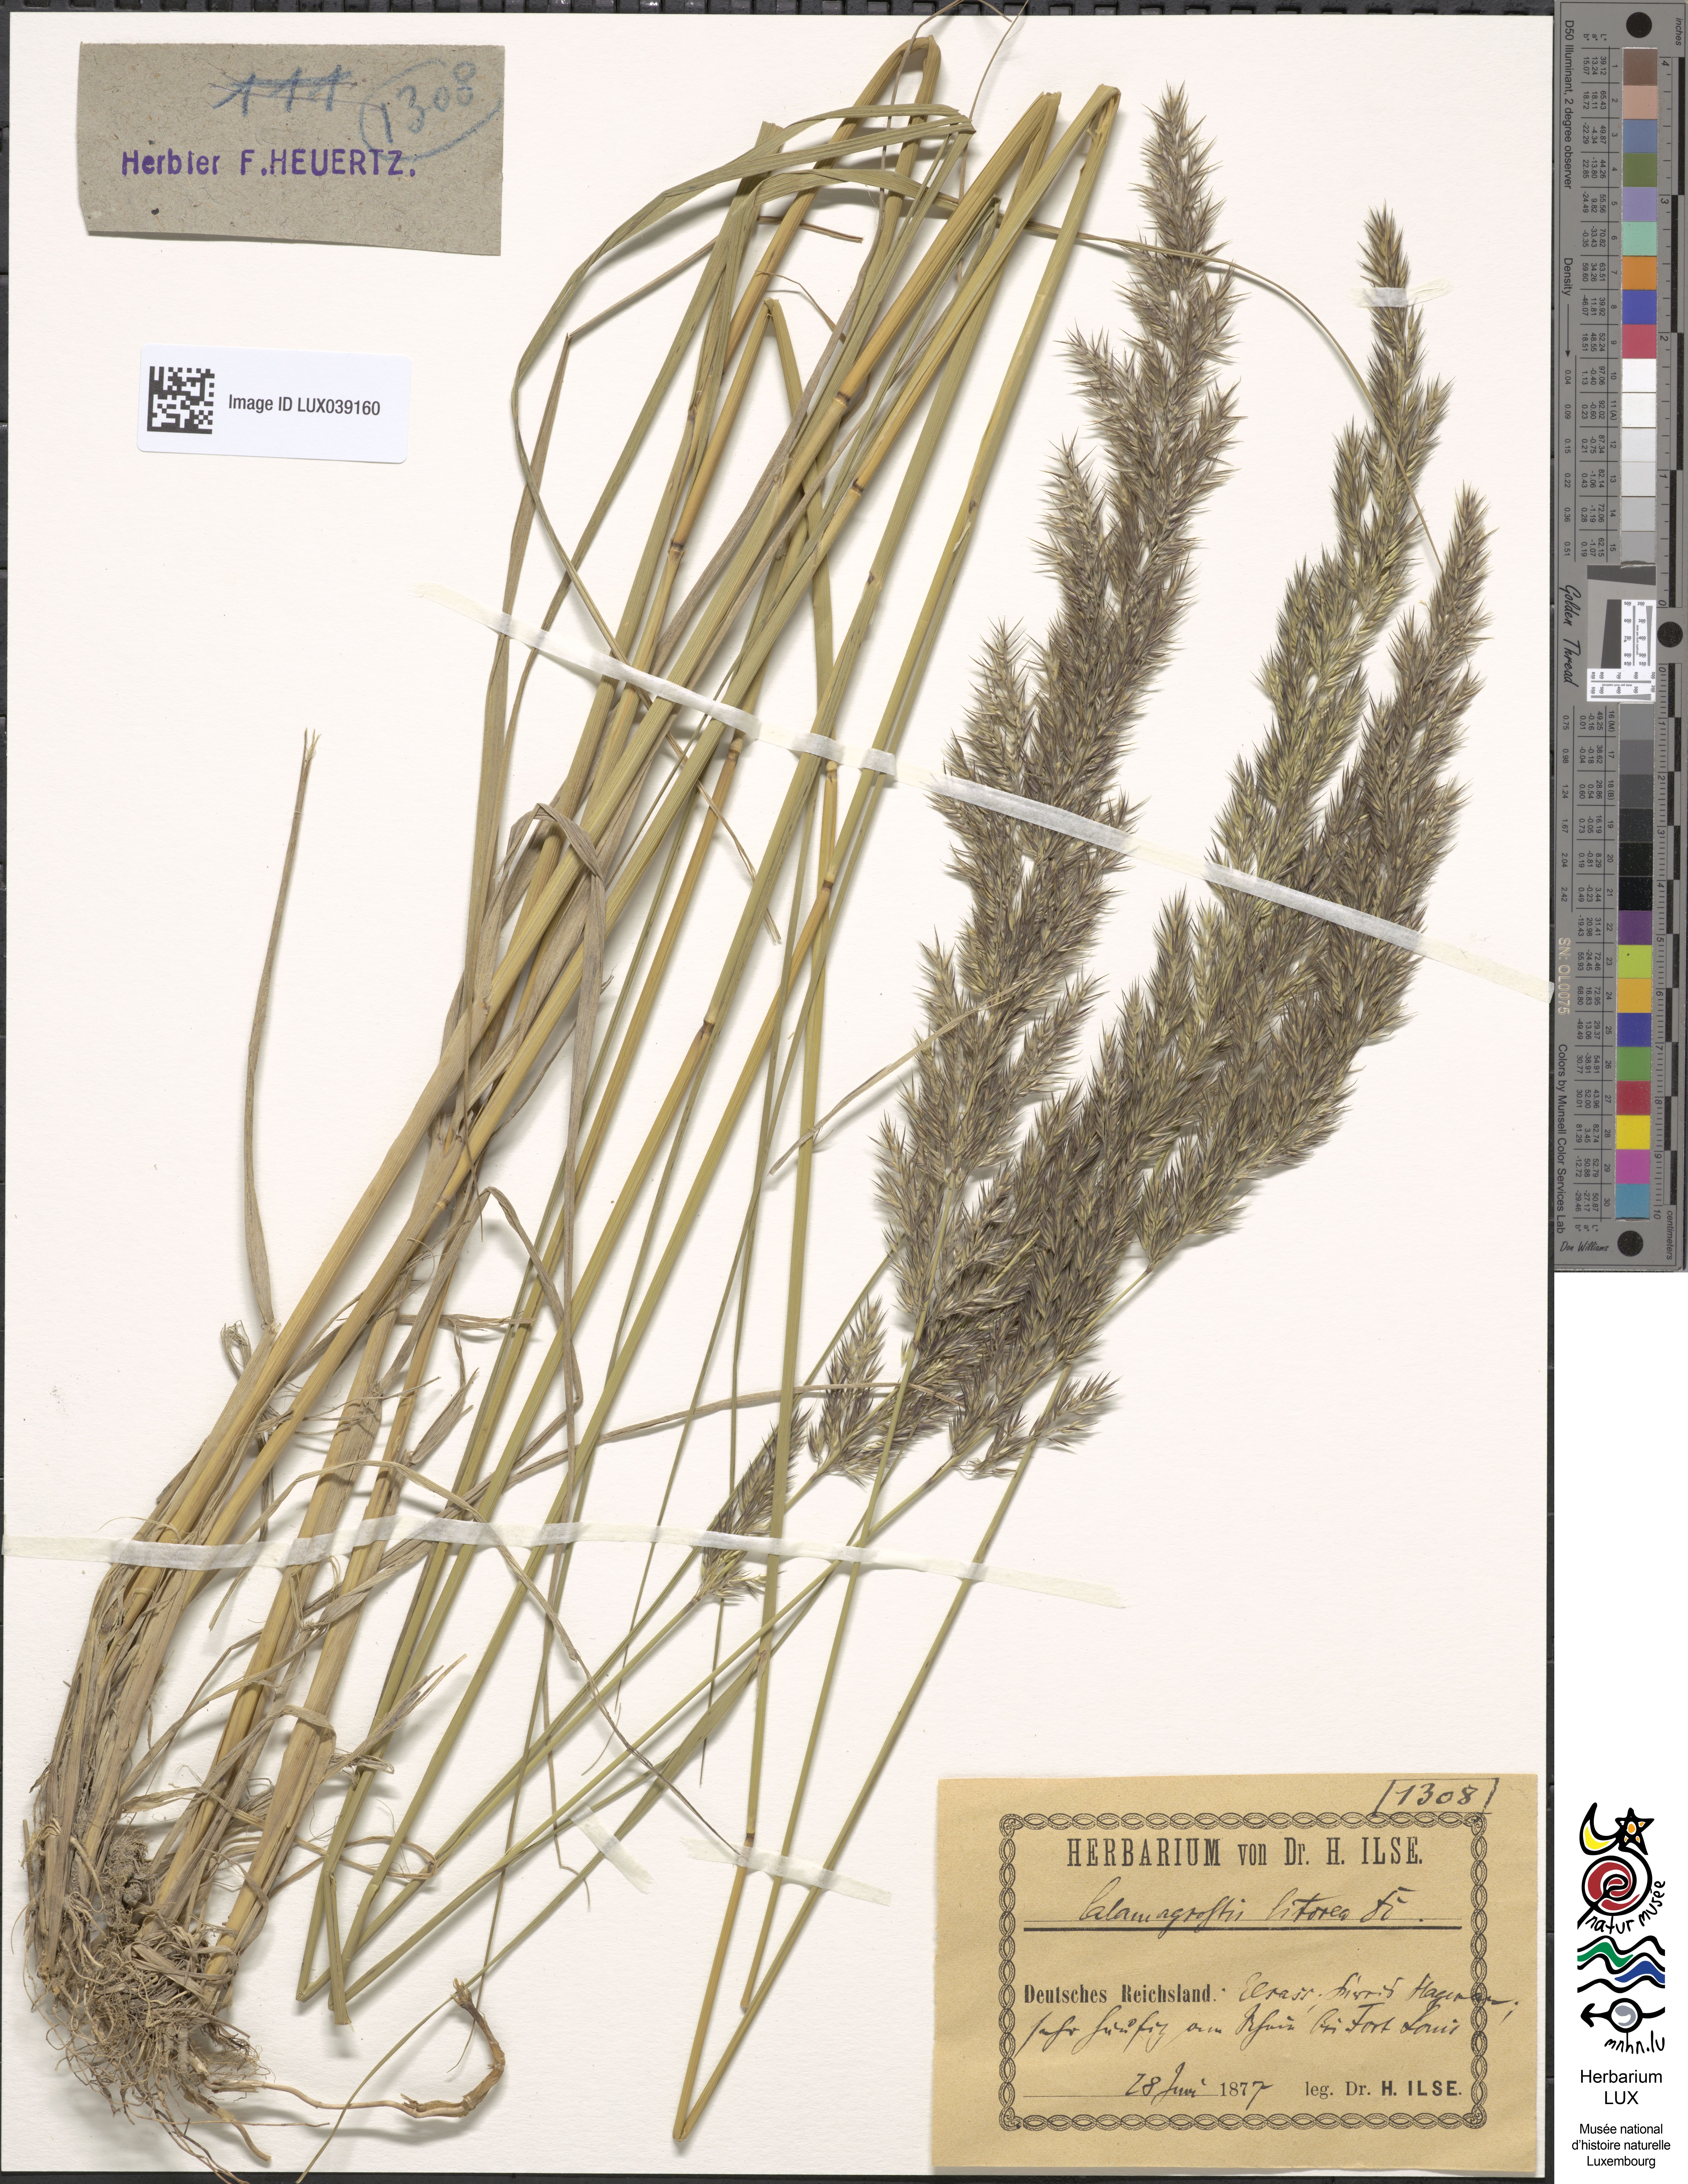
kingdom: Plantae
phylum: Tracheophyta
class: Liliopsida
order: Poales
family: Poaceae
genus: Calamagrostis
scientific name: Calamagrostis pseudophragmites
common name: Coastal small-reed
